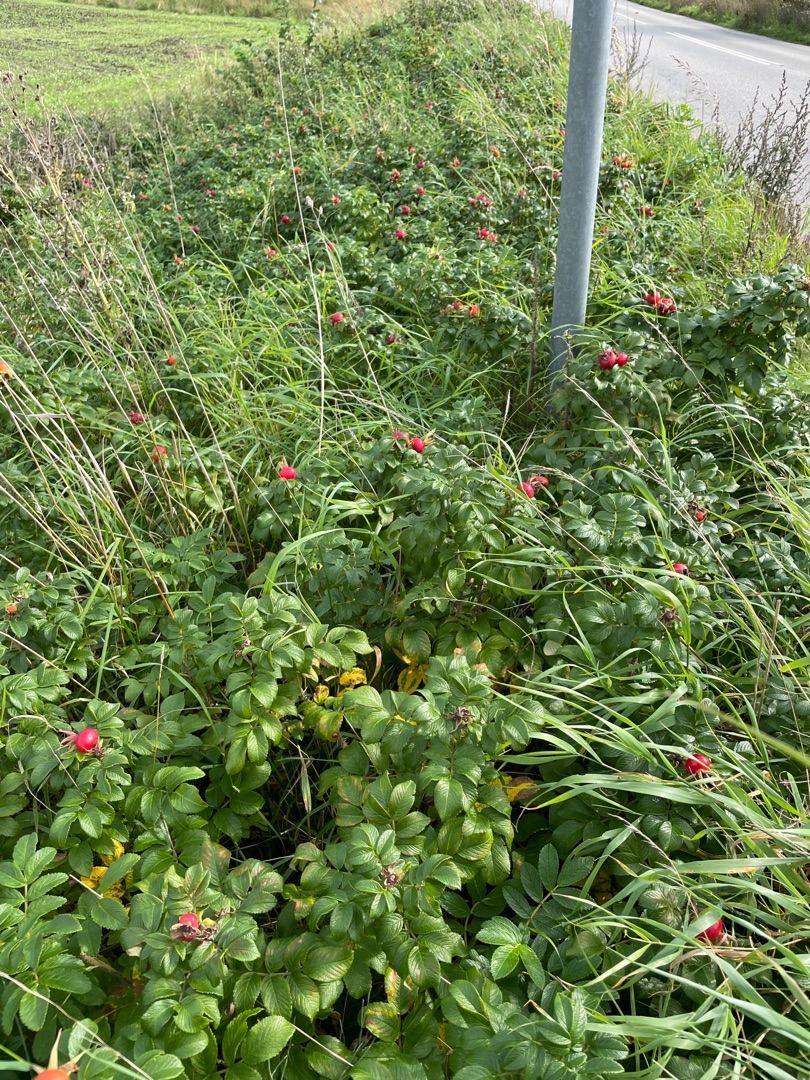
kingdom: Plantae
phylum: Tracheophyta
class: Magnoliopsida
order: Rosales
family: Rosaceae
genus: Rosa
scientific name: Rosa rugosa
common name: Rynket rose
